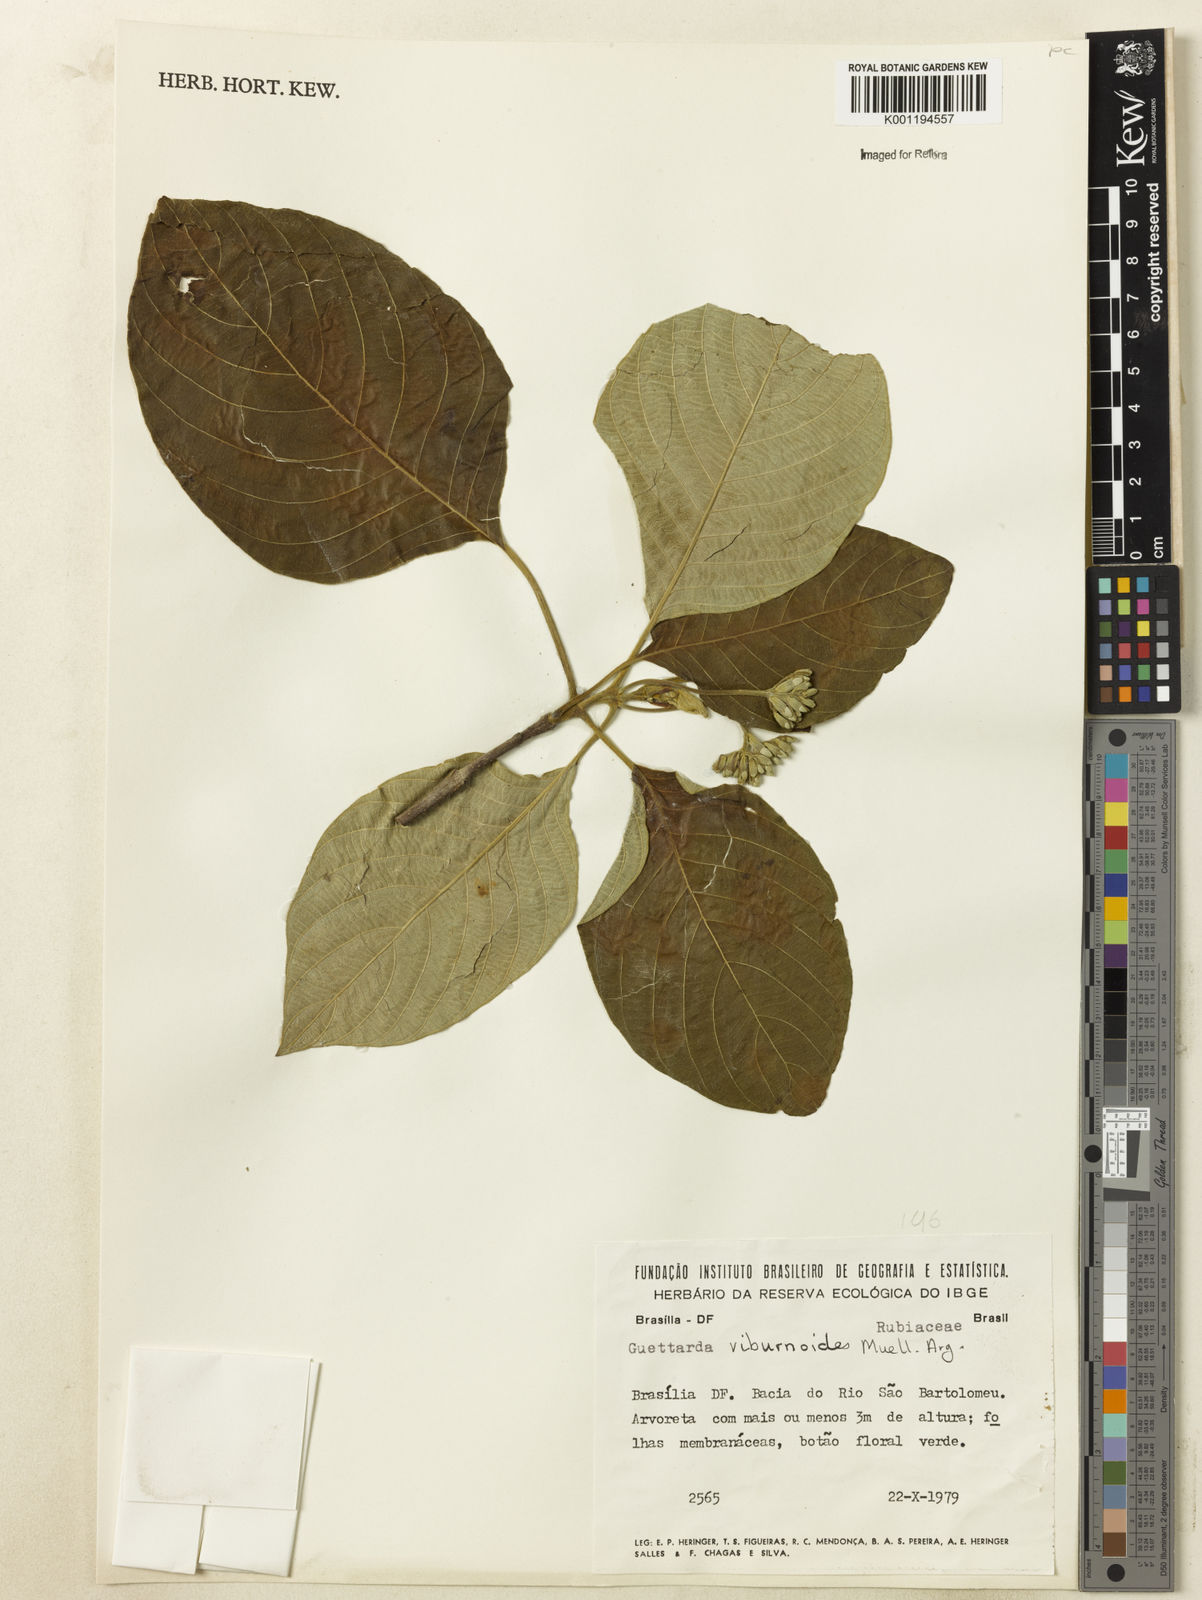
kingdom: Plantae
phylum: Tracheophyta
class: Magnoliopsida
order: Gentianales
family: Rubiaceae
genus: Guettarda
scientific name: Guettarda viburnoides
